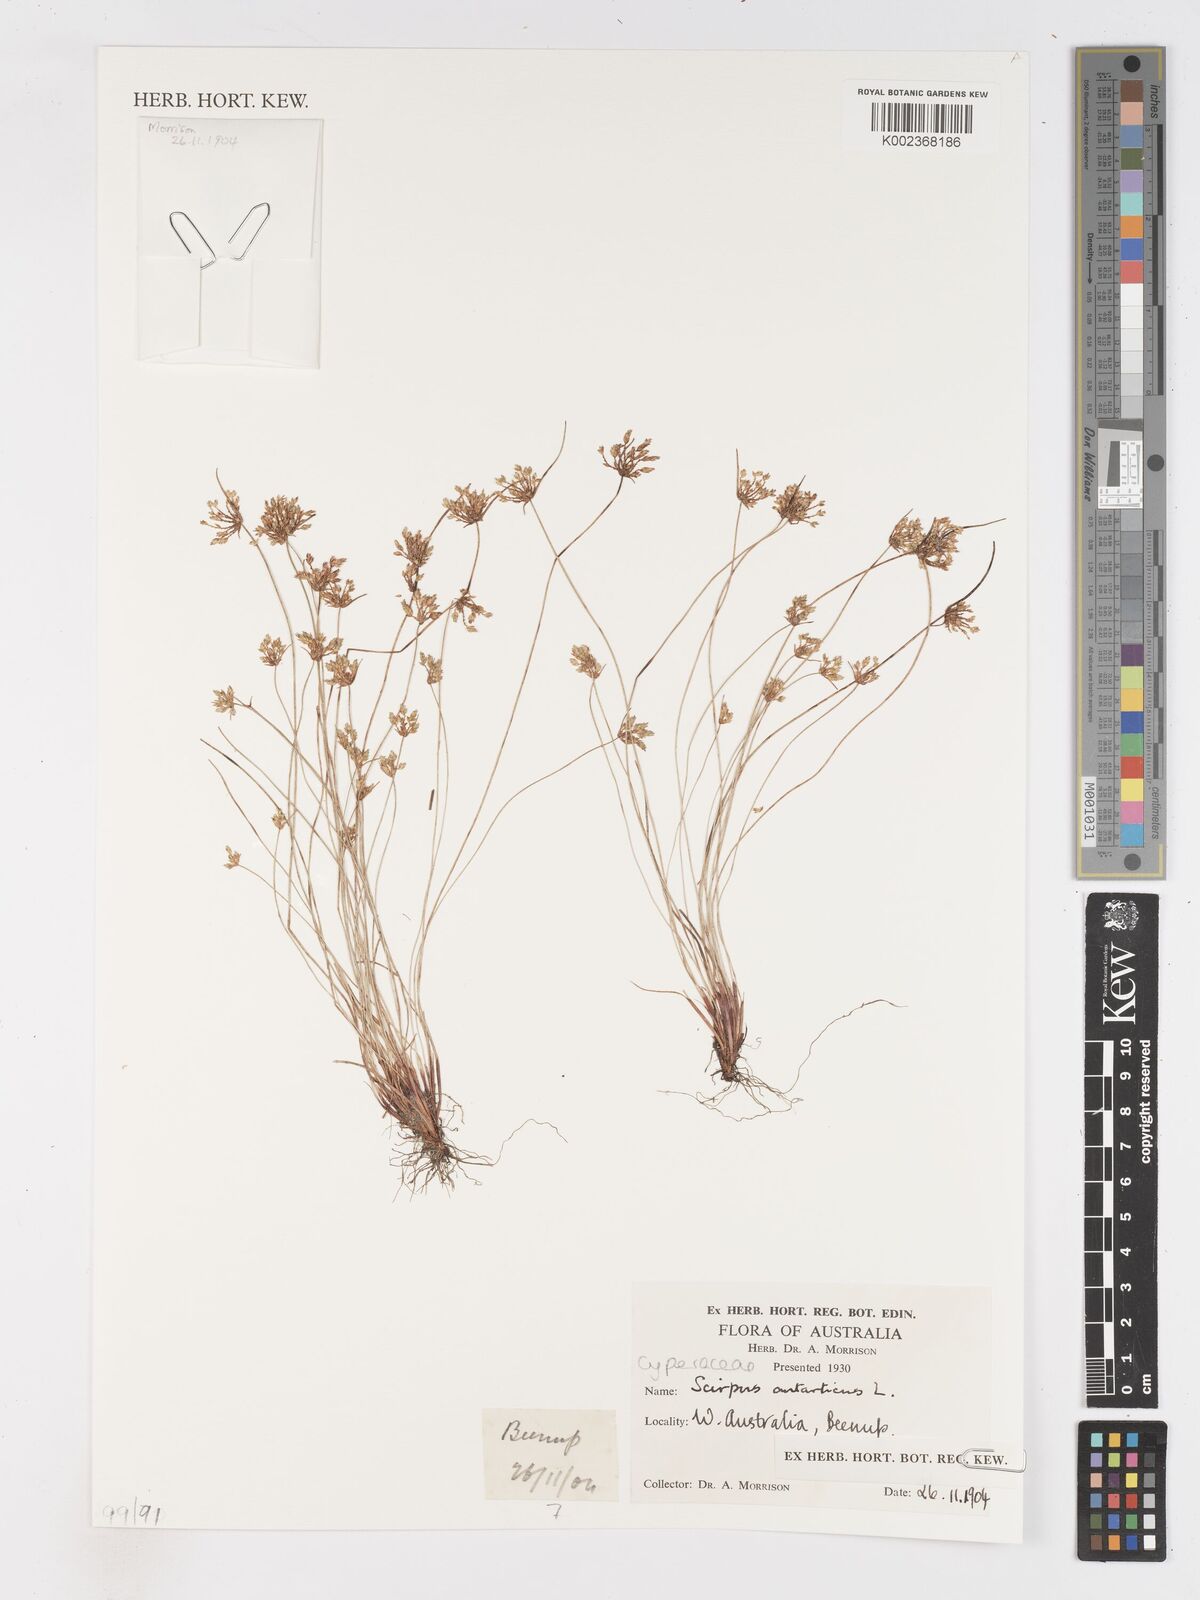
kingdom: Plantae
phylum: Tracheophyta
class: Liliopsida
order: Poales
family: Cyperaceae
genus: Isolepis
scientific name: Isolepis antarctica
